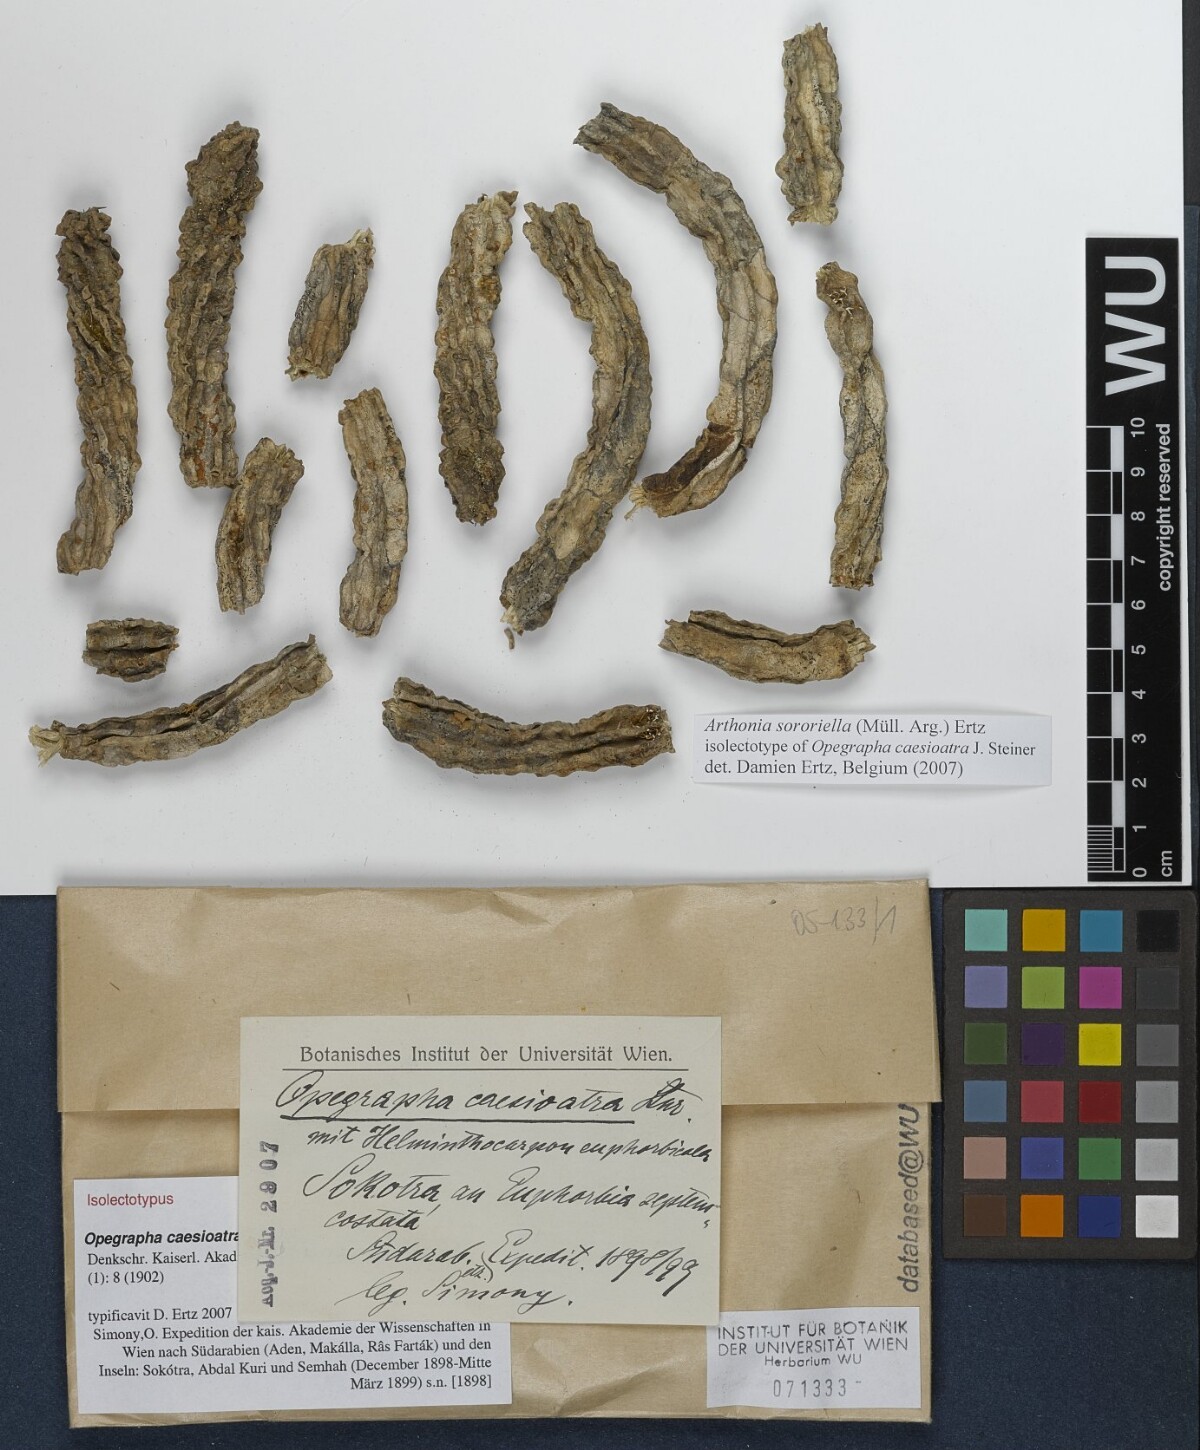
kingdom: Fungi
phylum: Ascomycota
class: Arthoniomycetes
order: Arthoniales
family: Opegraphaceae
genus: Opegrapha
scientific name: Opegrapha
